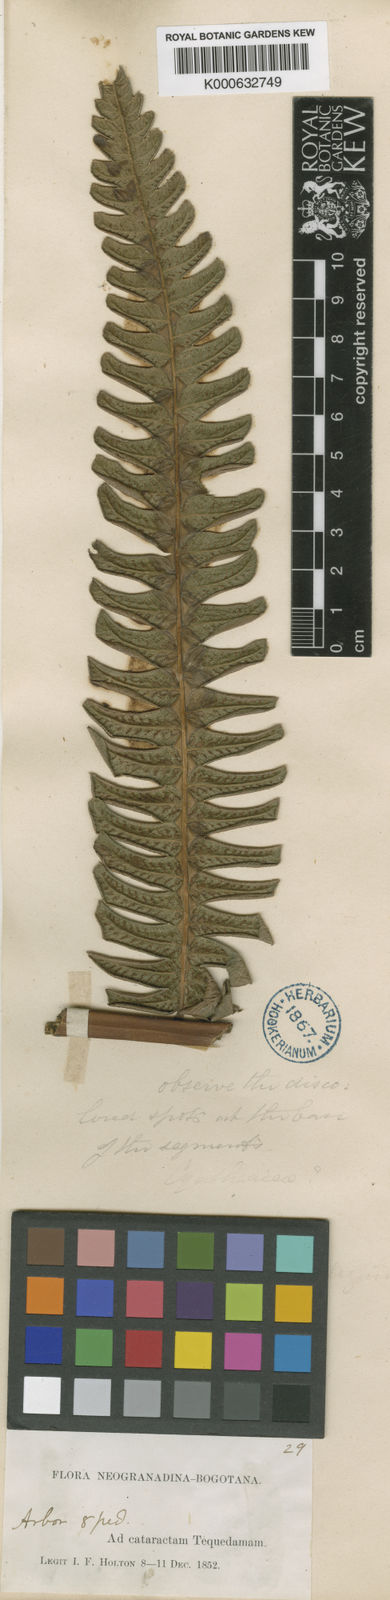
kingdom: Plantae
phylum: Tracheophyta
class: Polypodiopsida
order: Polypodiales
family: Athyriaceae
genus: Diplazium
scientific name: Diplazium lindbergii
